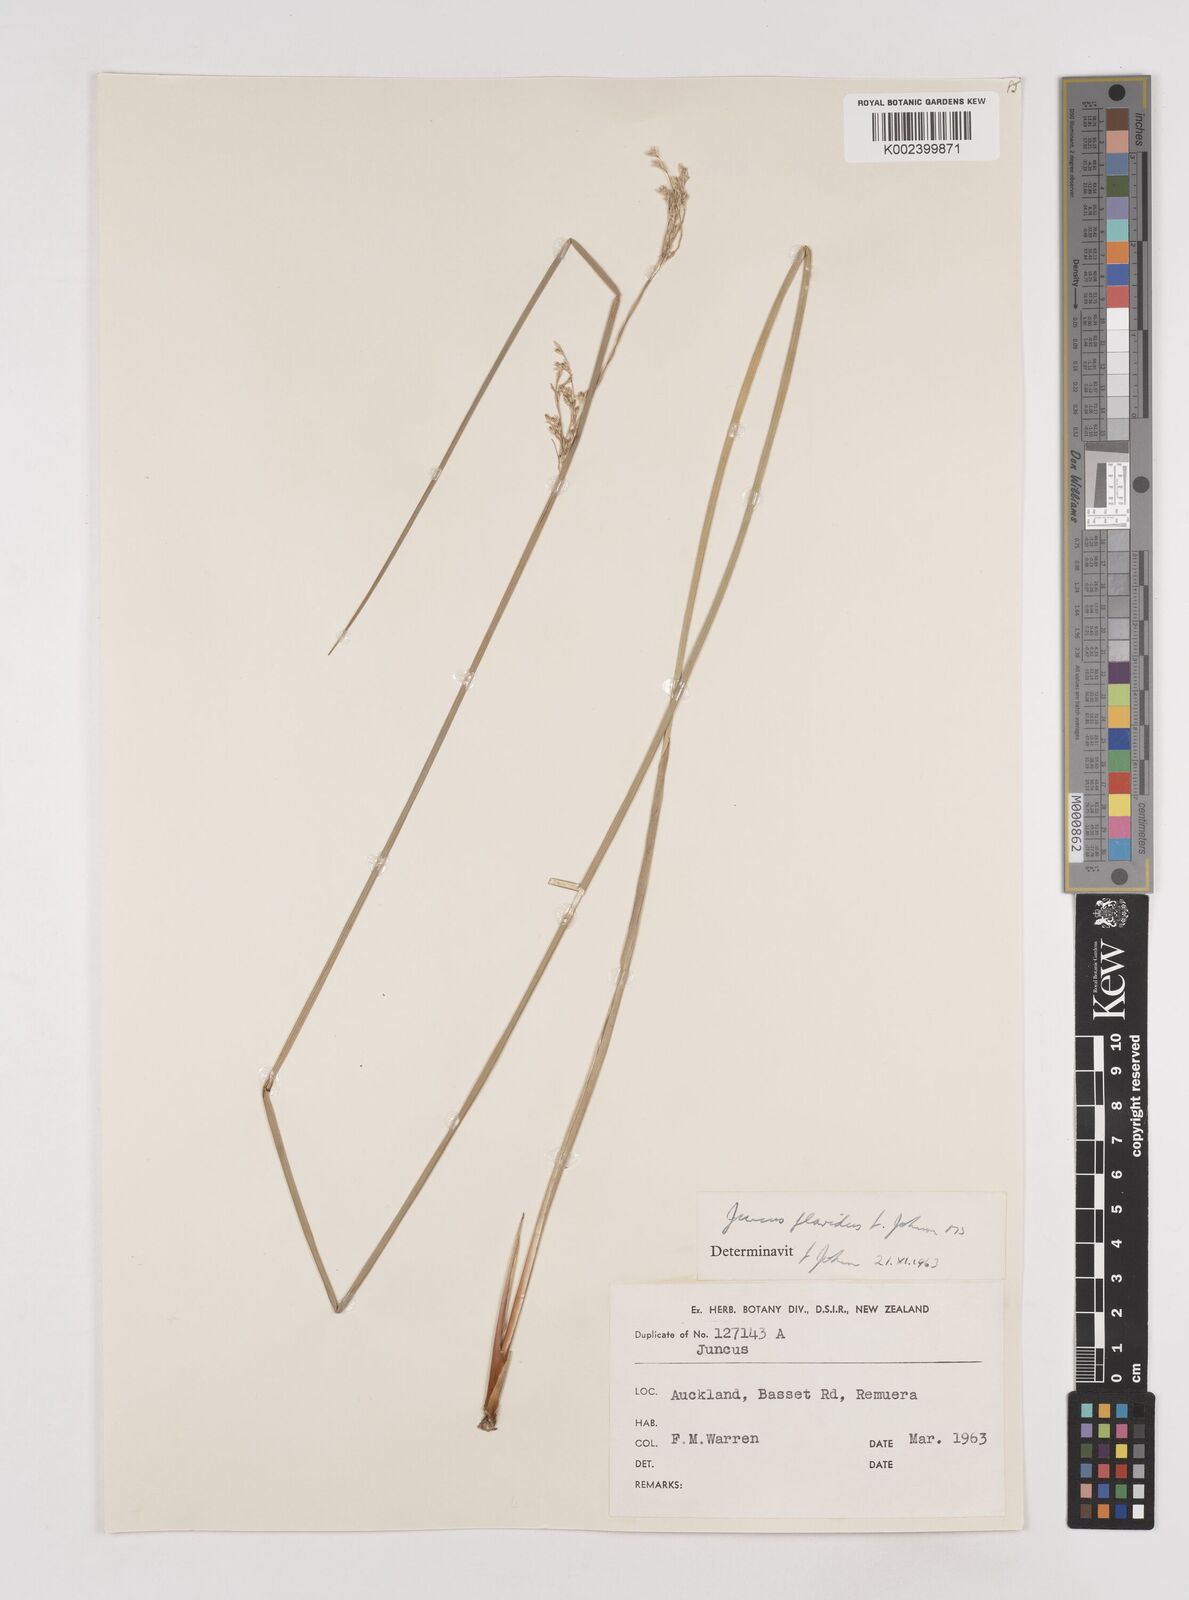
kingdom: Plantae
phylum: Tracheophyta
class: Liliopsida
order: Poales
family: Juncaceae
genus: Juncus
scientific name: Juncus flavidus
